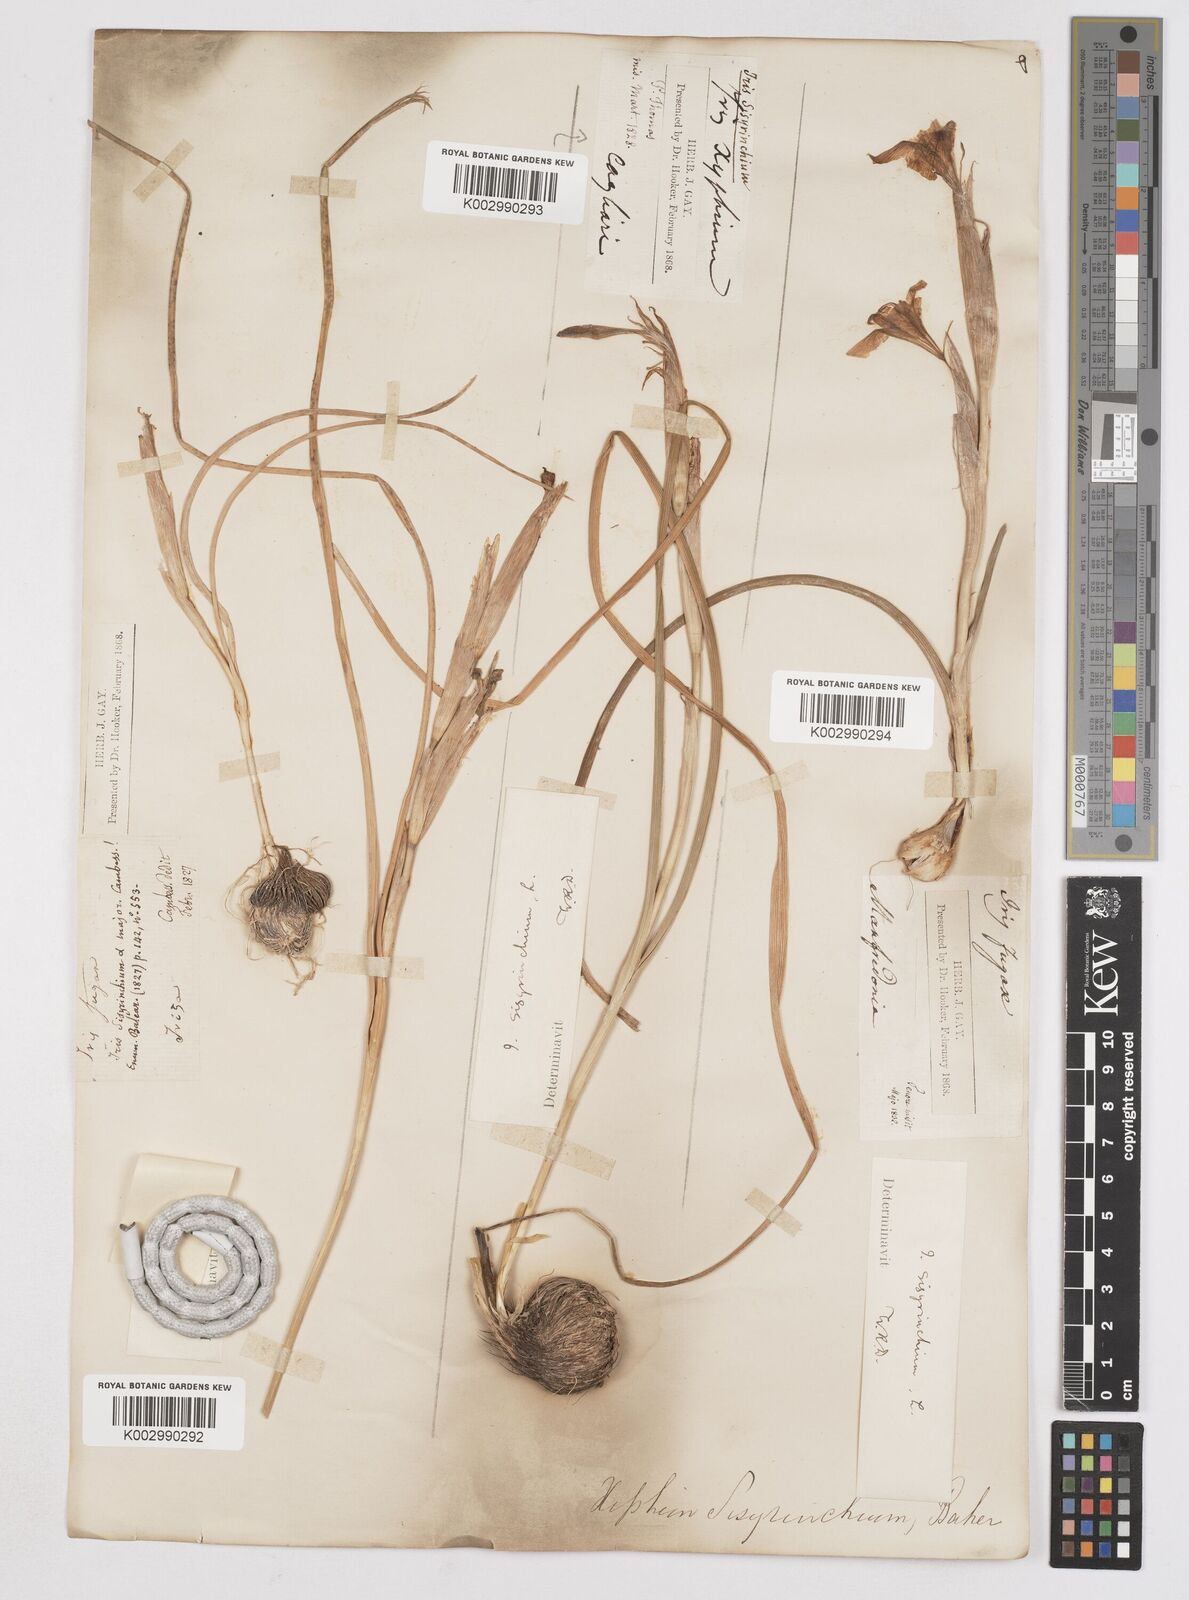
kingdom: Plantae
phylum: Tracheophyta
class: Liliopsida
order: Asparagales
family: Iridaceae
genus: Moraea
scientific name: Moraea sisyrinchium
